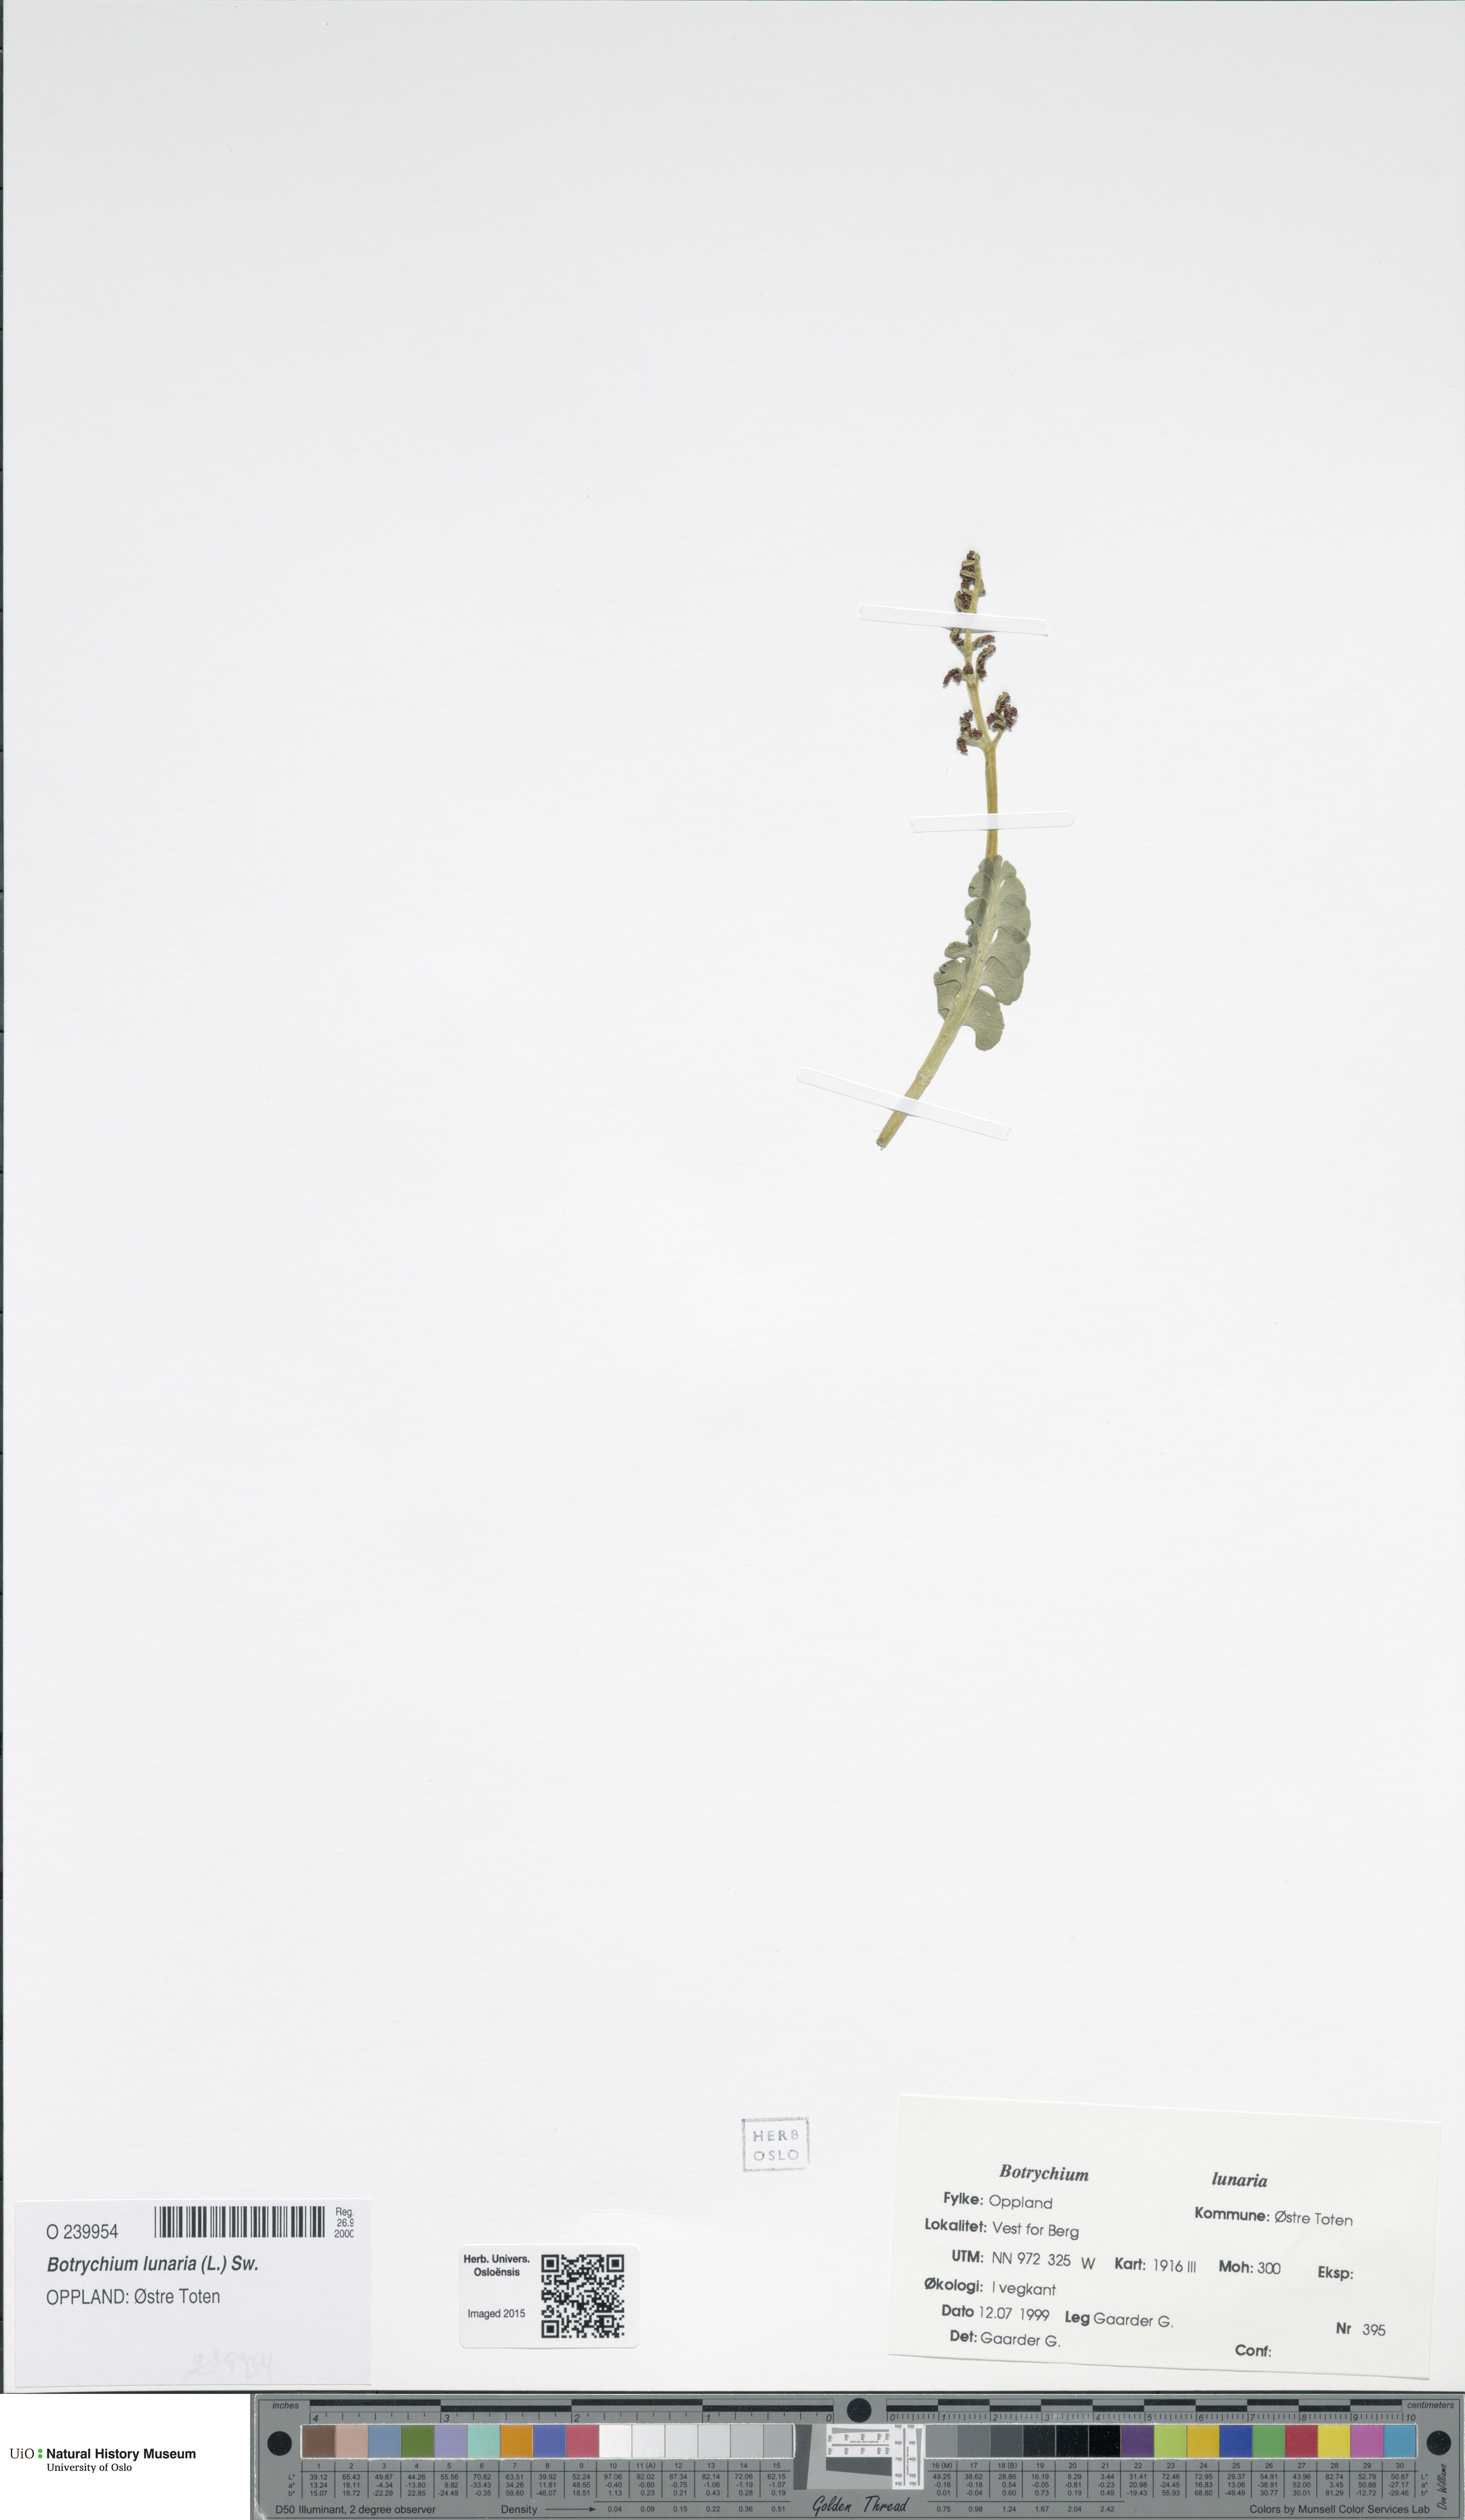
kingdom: Plantae
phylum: Tracheophyta
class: Polypodiopsida
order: Ophioglossales
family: Ophioglossaceae
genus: Botrychium
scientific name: Botrychium lunaria
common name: Moonwort
